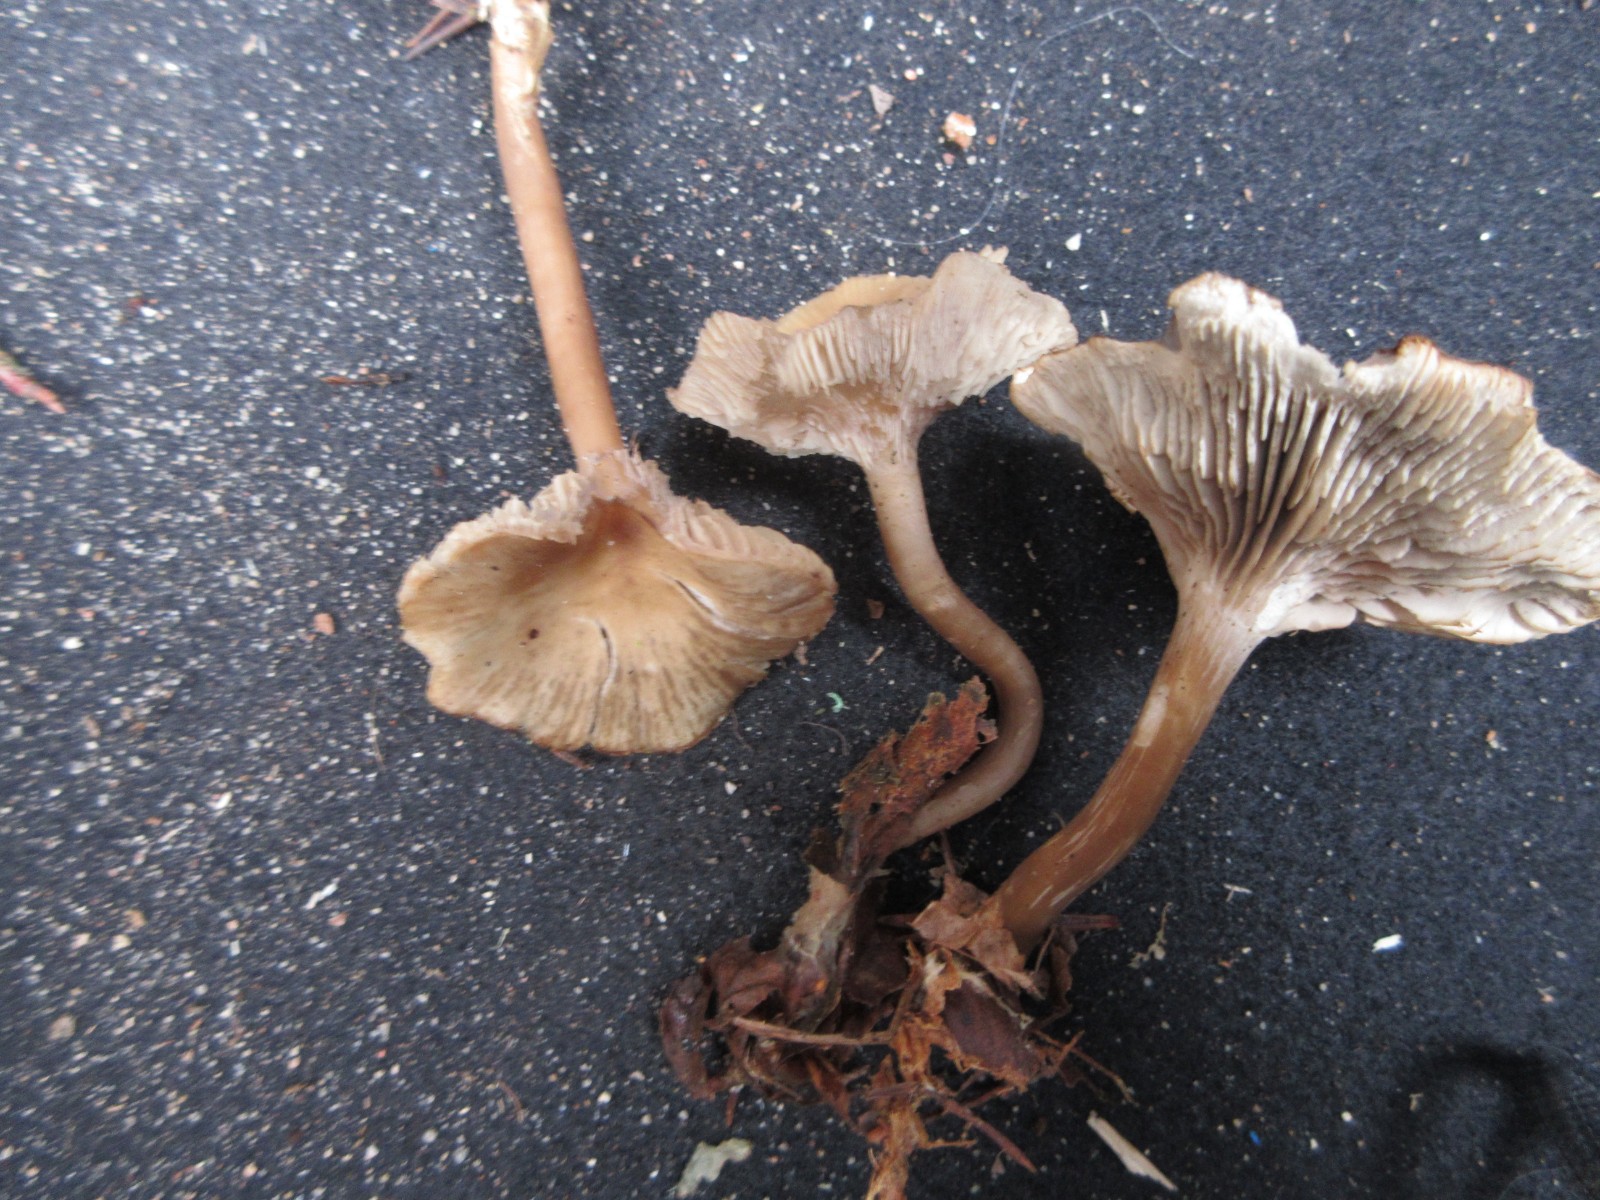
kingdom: Fungi
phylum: Basidiomycota
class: Agaricomycetes
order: Agaricales
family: Tricholomataceae
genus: Clitocybe
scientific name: Clitocybe
